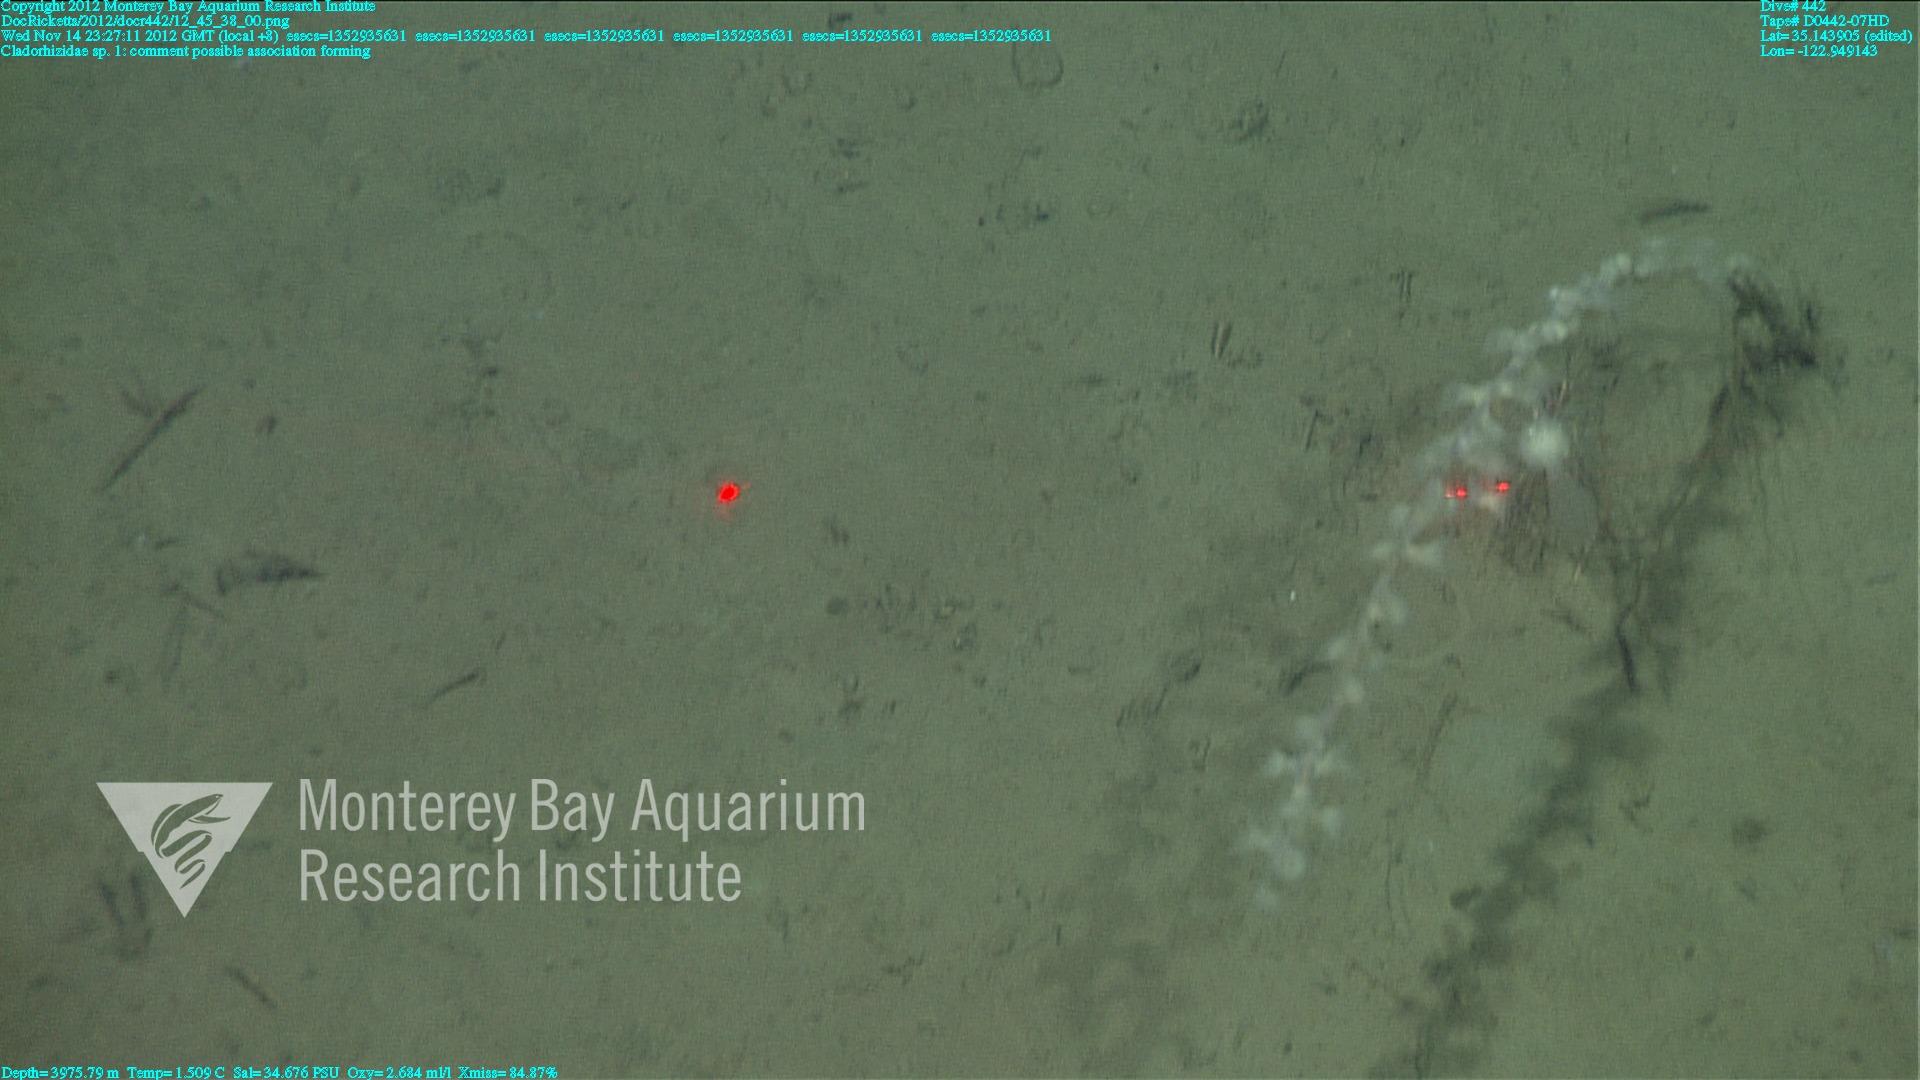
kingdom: Animalia
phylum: Porifera
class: Demospongiae
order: Poecilosclerida
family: Cladorhizidae
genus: Cladorhiza
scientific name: Cladorhiza
